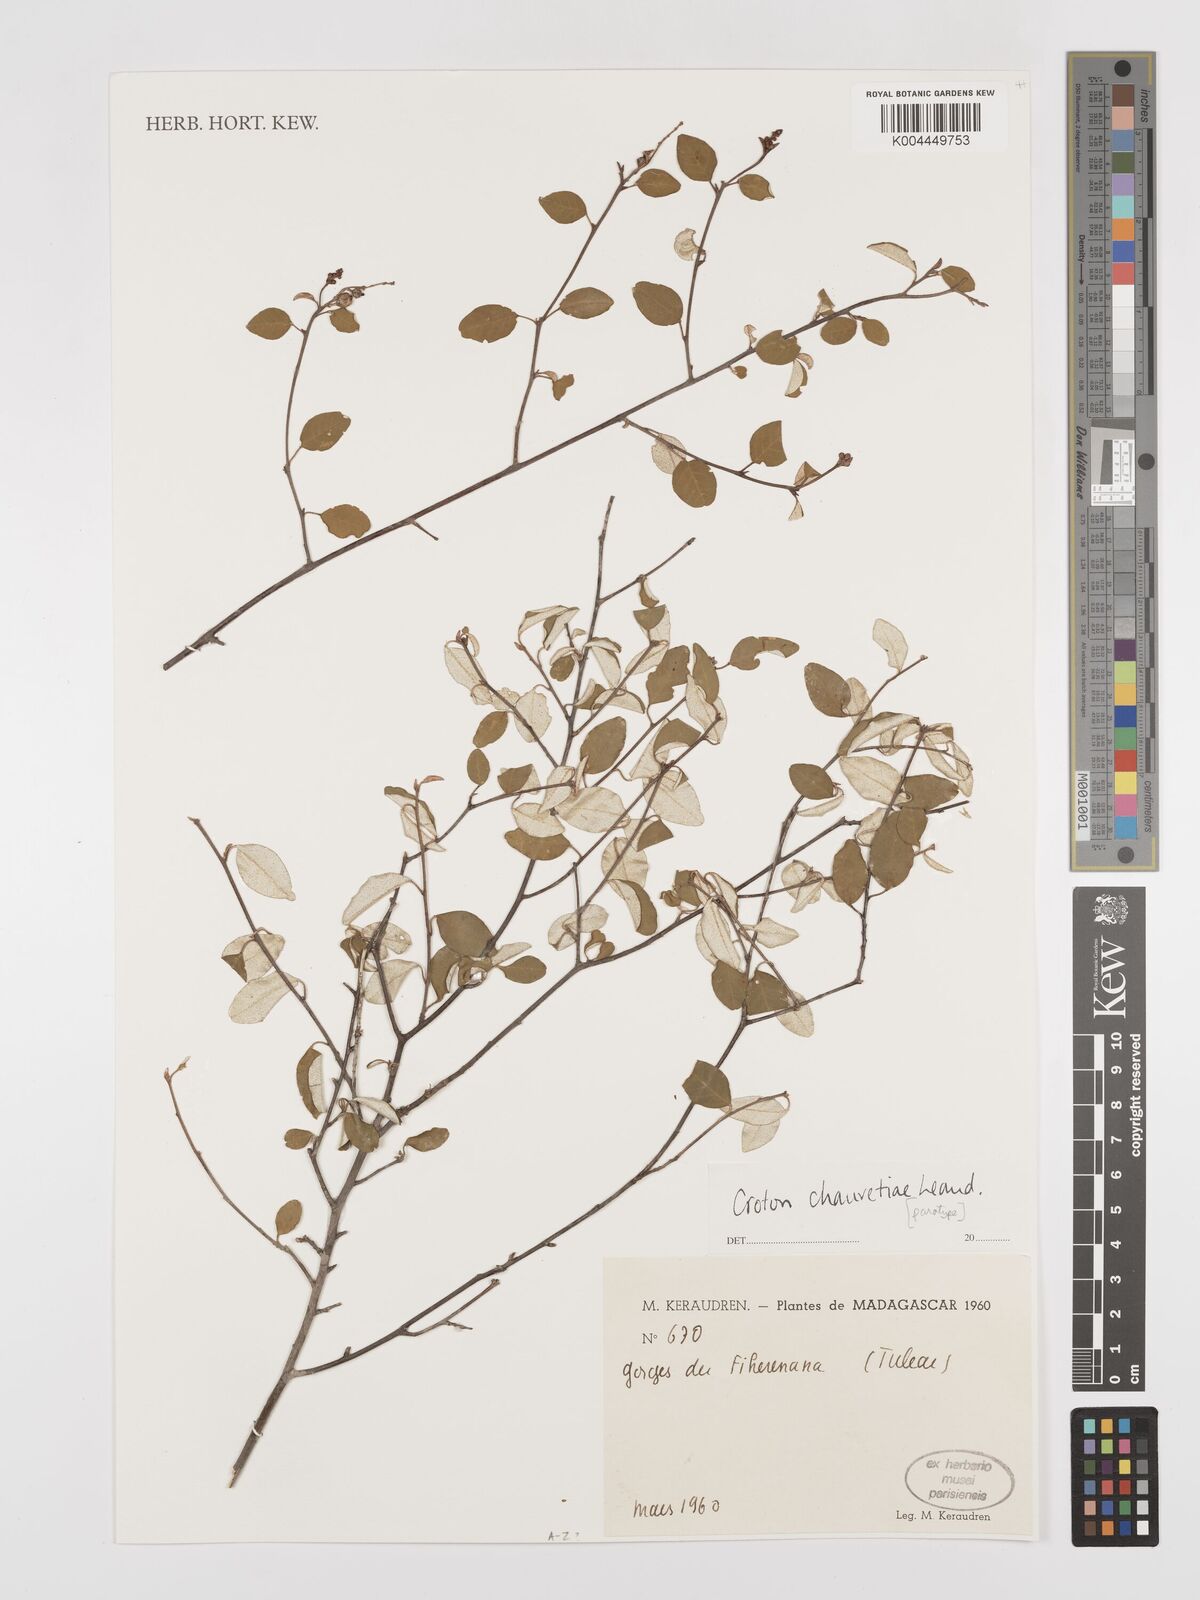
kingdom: Plantae
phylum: Tracheophyta
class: Magnoliopsida
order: Malpighiales
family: Euphorbiaceae
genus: Croton
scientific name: Croton chauvetiae
